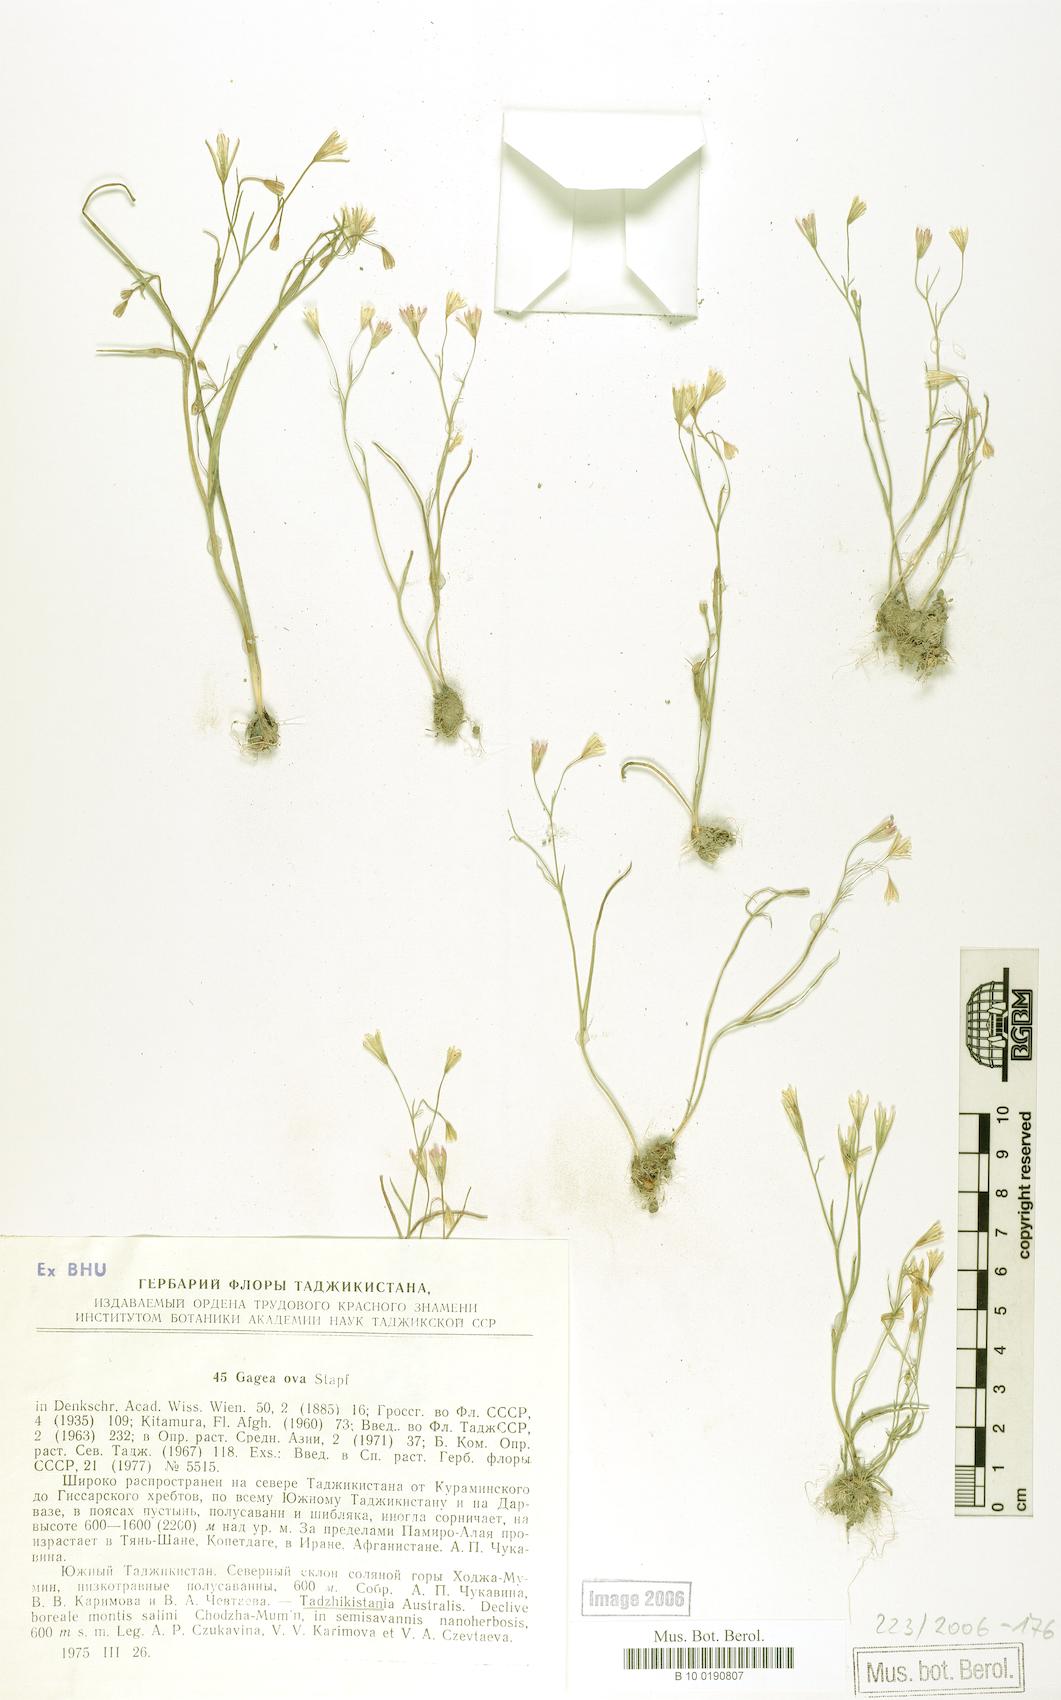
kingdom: Plantae
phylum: Tracheophyta
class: Liliopsida
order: Liliales
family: Liliaceae
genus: Gagea
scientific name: Gagea kunawurensis
